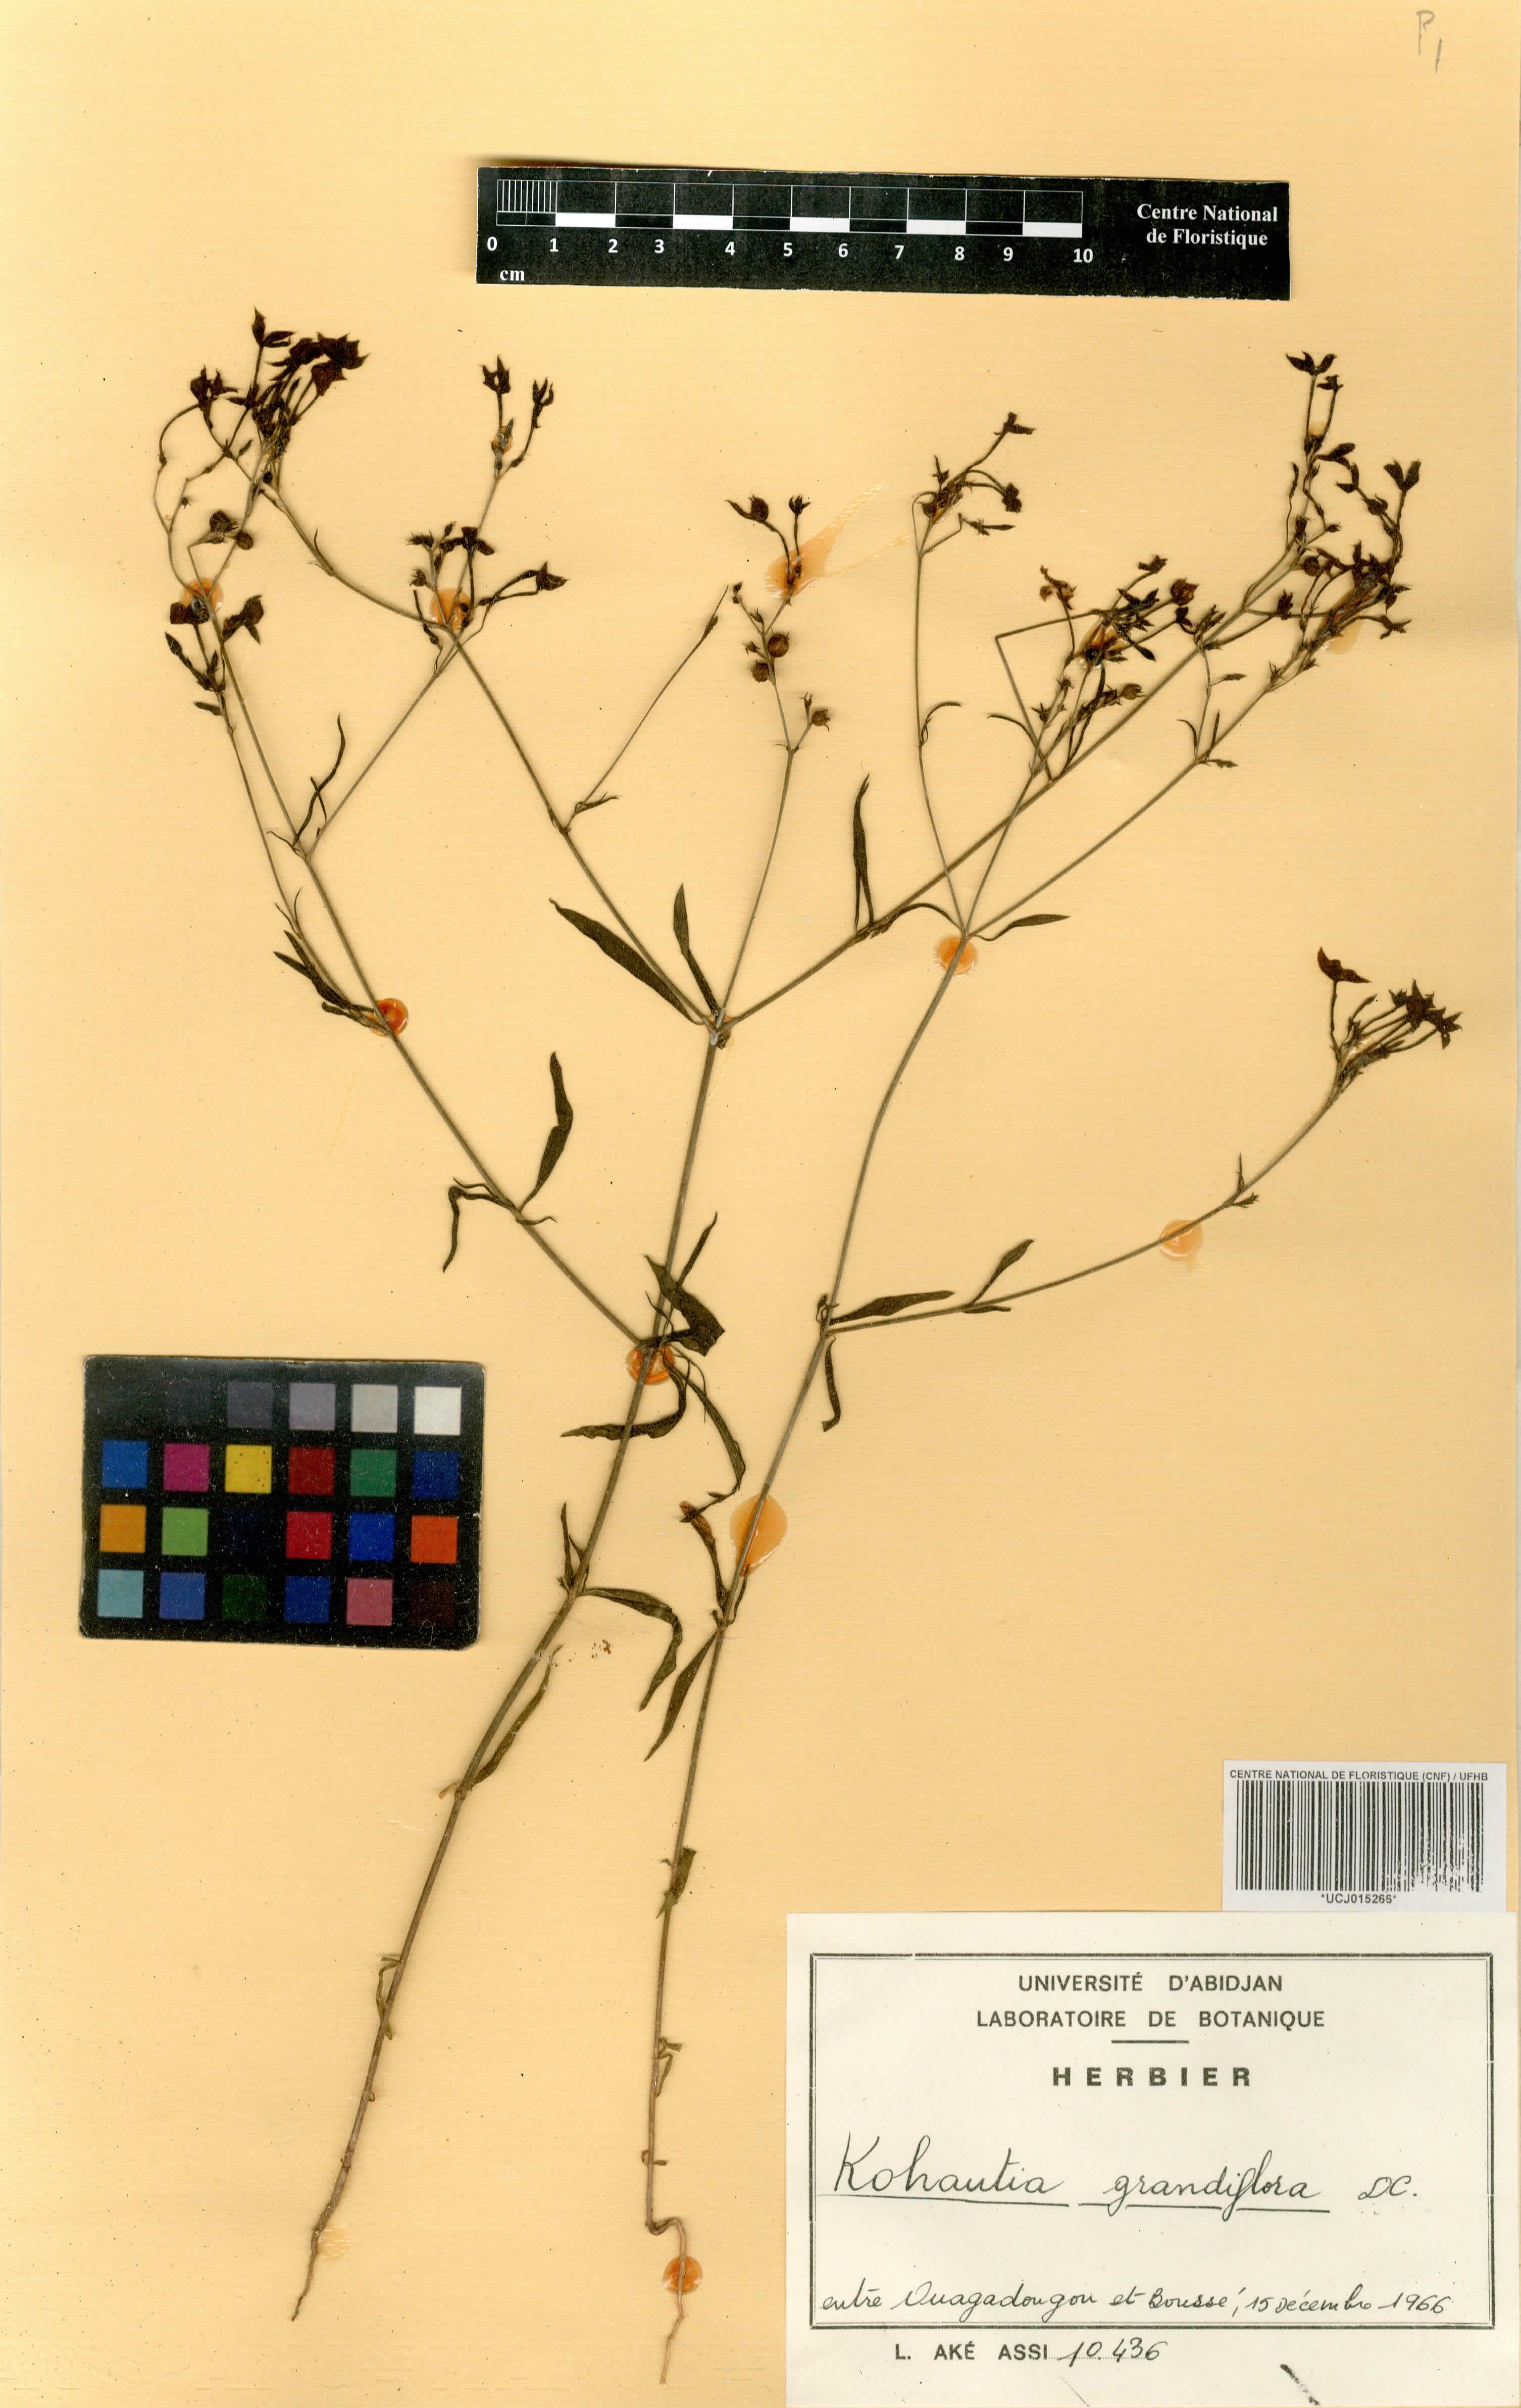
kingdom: Plantae
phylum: Tracheophyta
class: Magnoliopsida
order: Gentianales
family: Rubiaceae
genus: Kohautia
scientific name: Kohautia grandiflora
